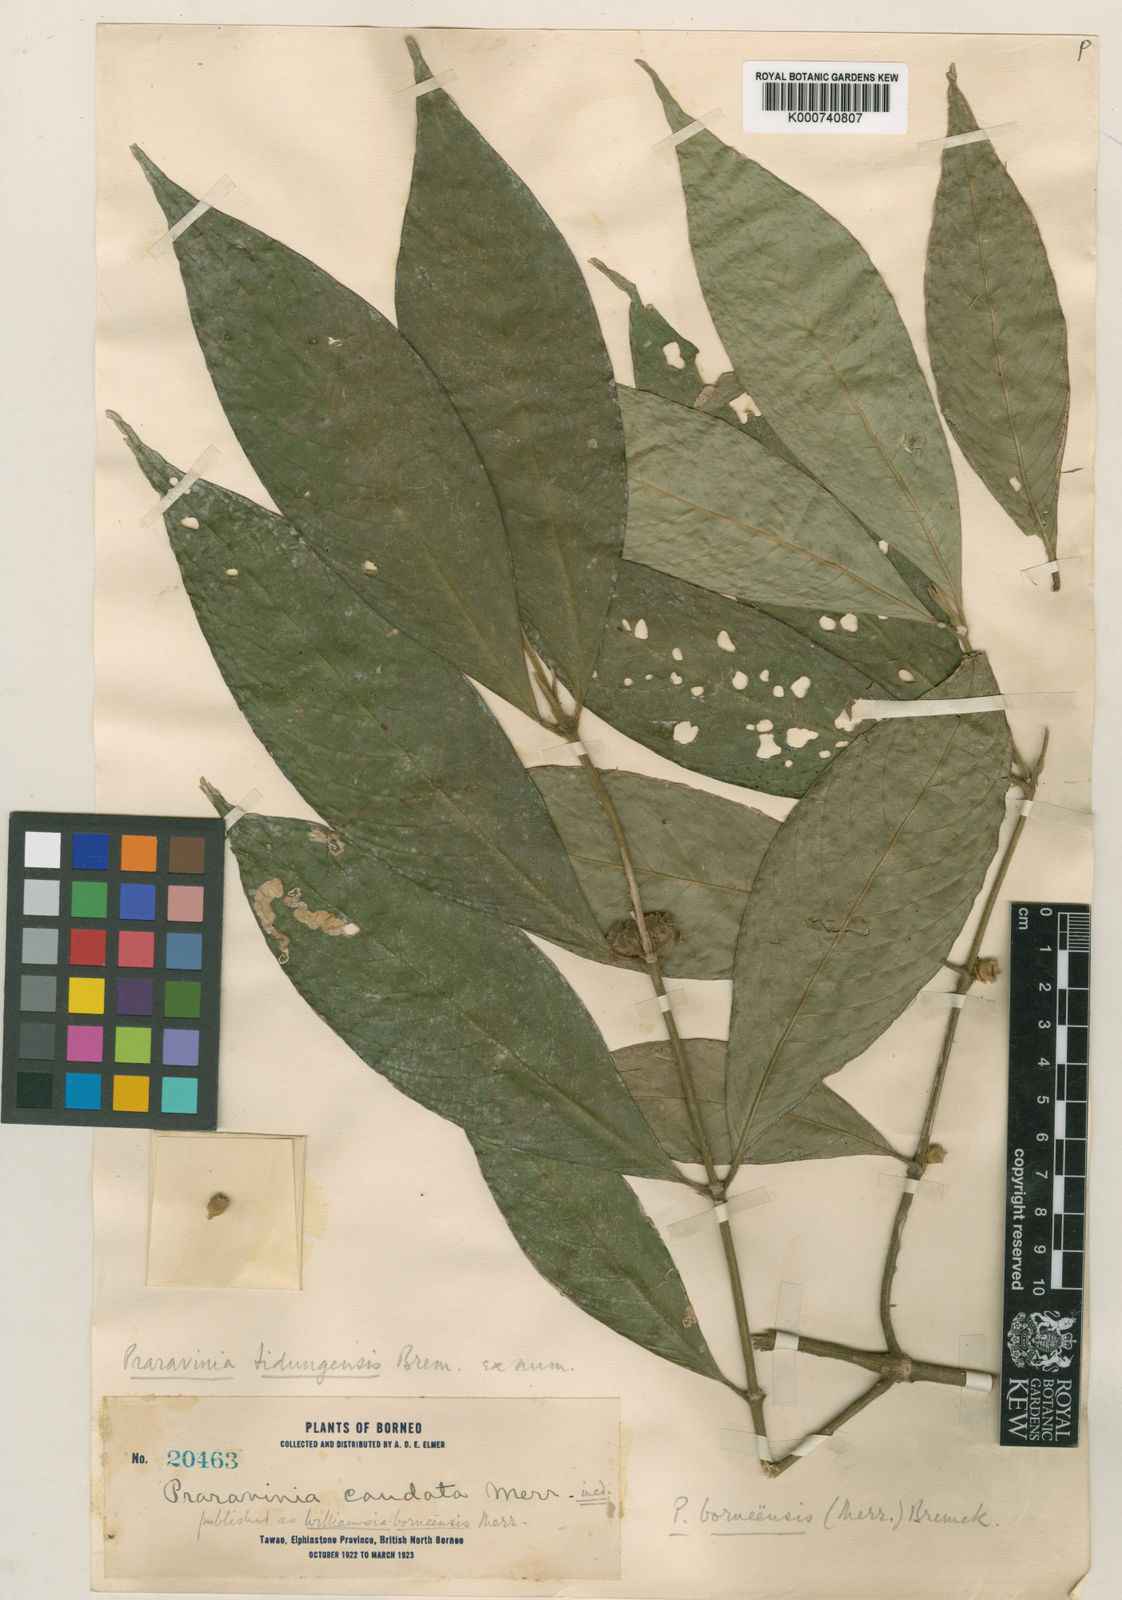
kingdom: Plantae
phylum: Tracheophyta
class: Magnoliopsida
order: Gentianales
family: Rubiaceae
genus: Praravinia
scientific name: Praravinia borneensis
